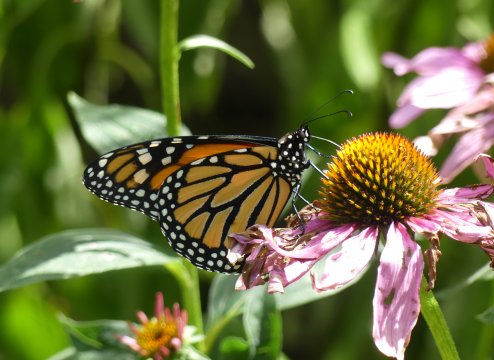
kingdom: Animalia
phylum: Arthropoda
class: Insecta
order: Lepidoptera
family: Nymphalidae
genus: Danaus
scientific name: Danaus plexippus
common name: Monarch
